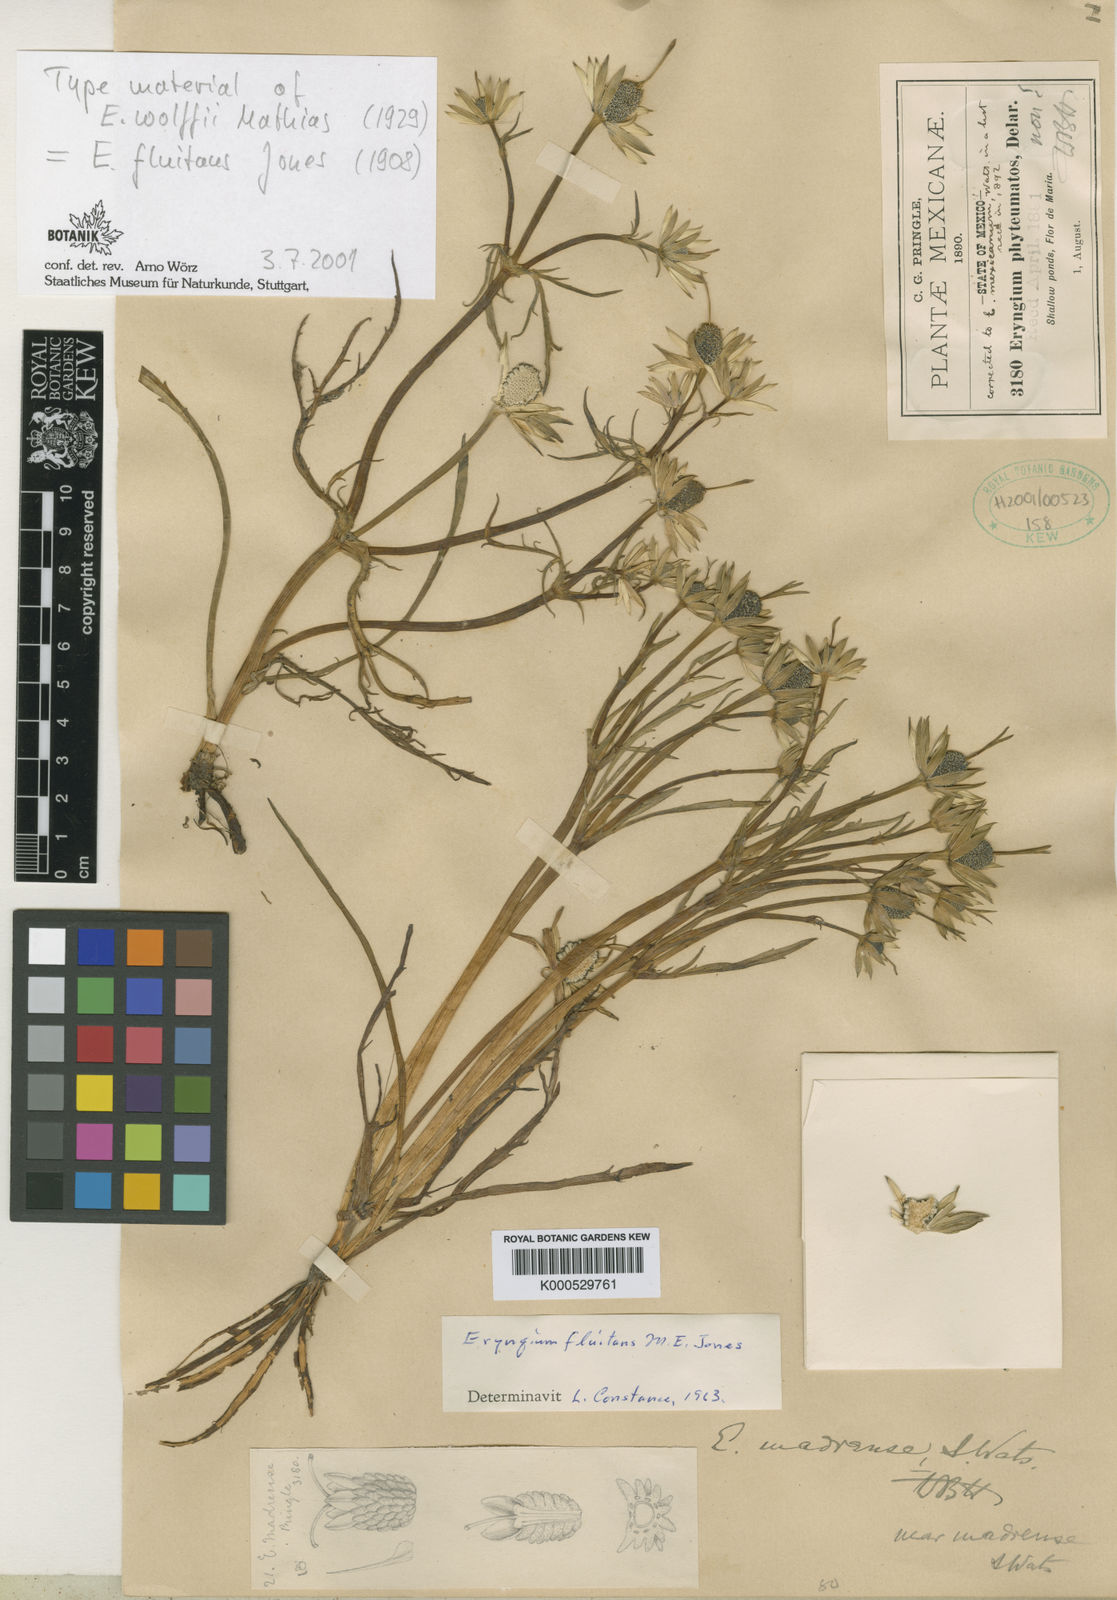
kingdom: Plantae
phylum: Tracheophyta
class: Magnoliopsida
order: Apiales
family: Apiaceae
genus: Eryngium
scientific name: Eryngium fluitans
